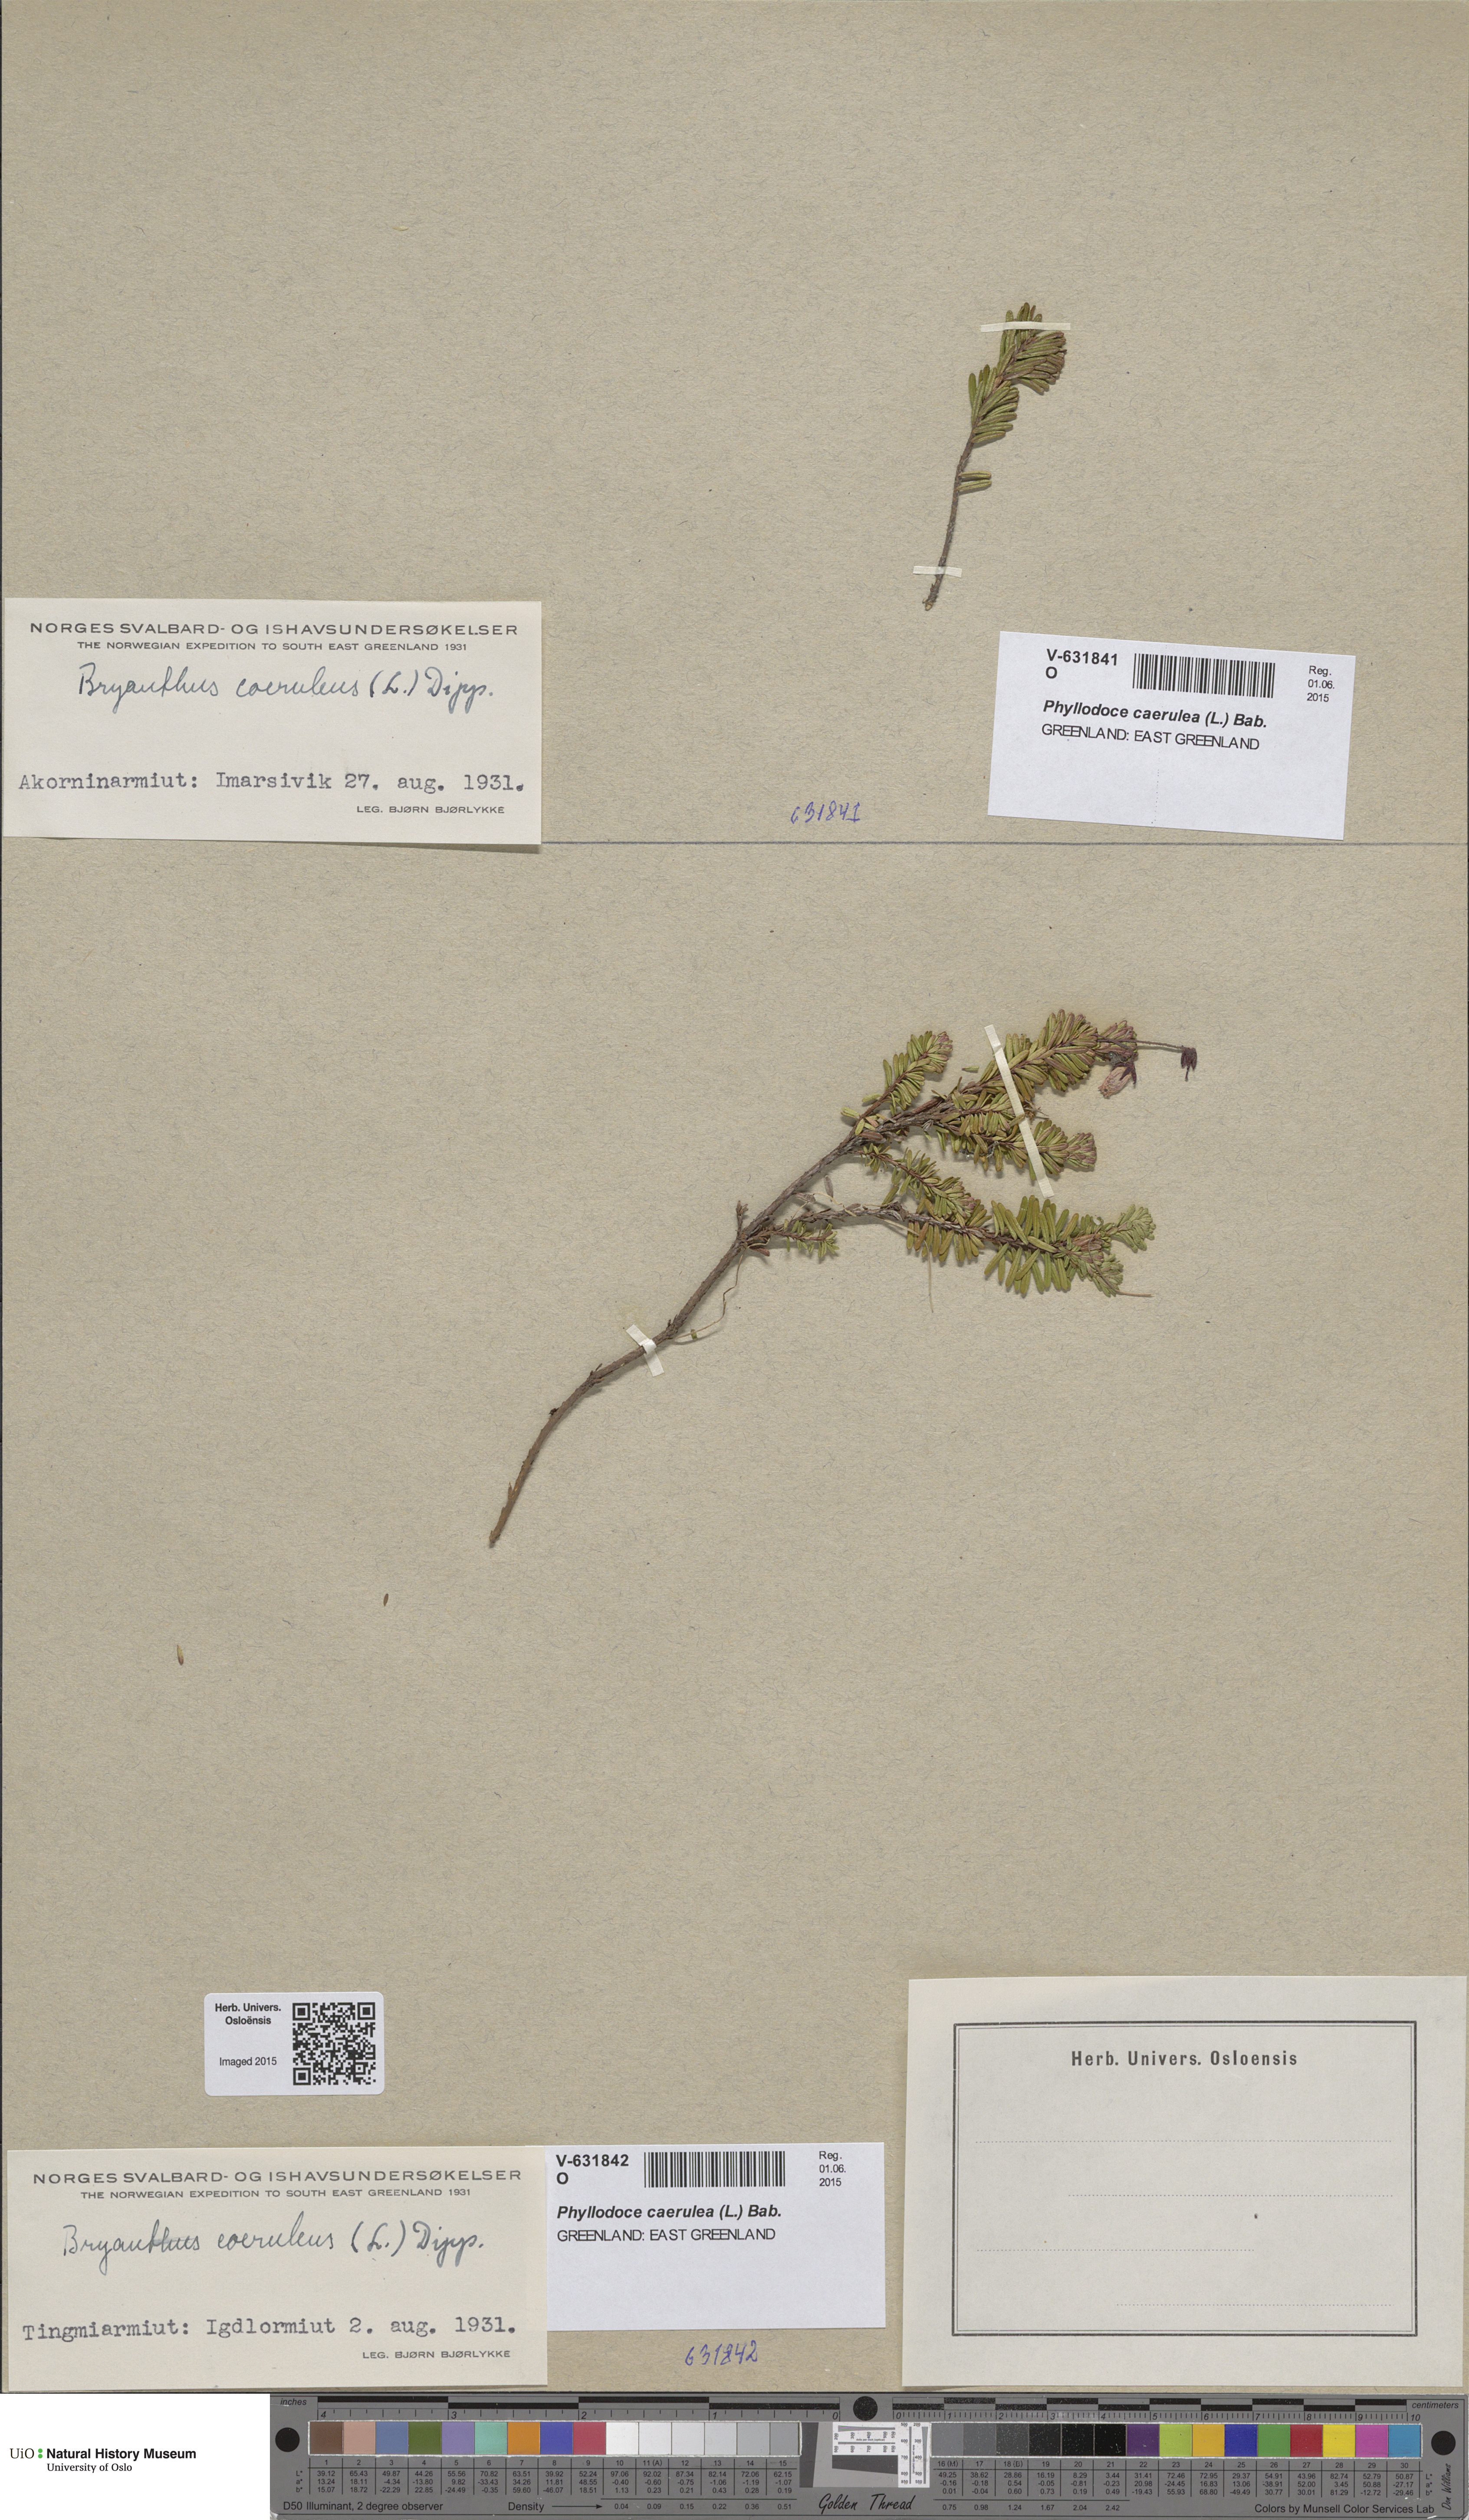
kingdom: Plantae
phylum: Tracheophyta
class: Magnoliopsida
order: Ericales
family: Ericaceae
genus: Phyllodoce
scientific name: Phyllodoce caerulea
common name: Blue heath
